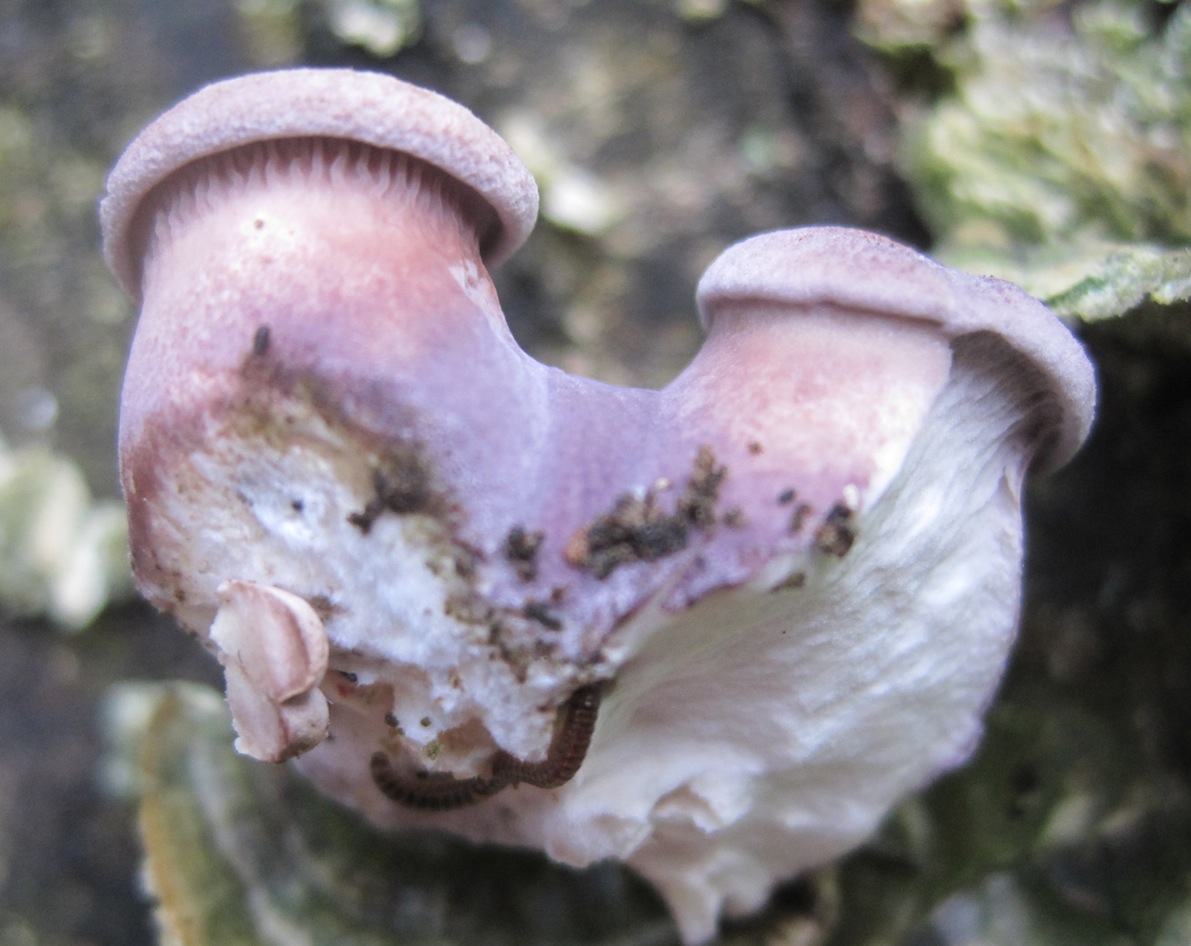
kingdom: Fungi
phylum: Basidiomycota
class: Agaricomycetes
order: Polyporales
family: Panaceae
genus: Panus
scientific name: Panus conchatus
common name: filtstokket læderhat
